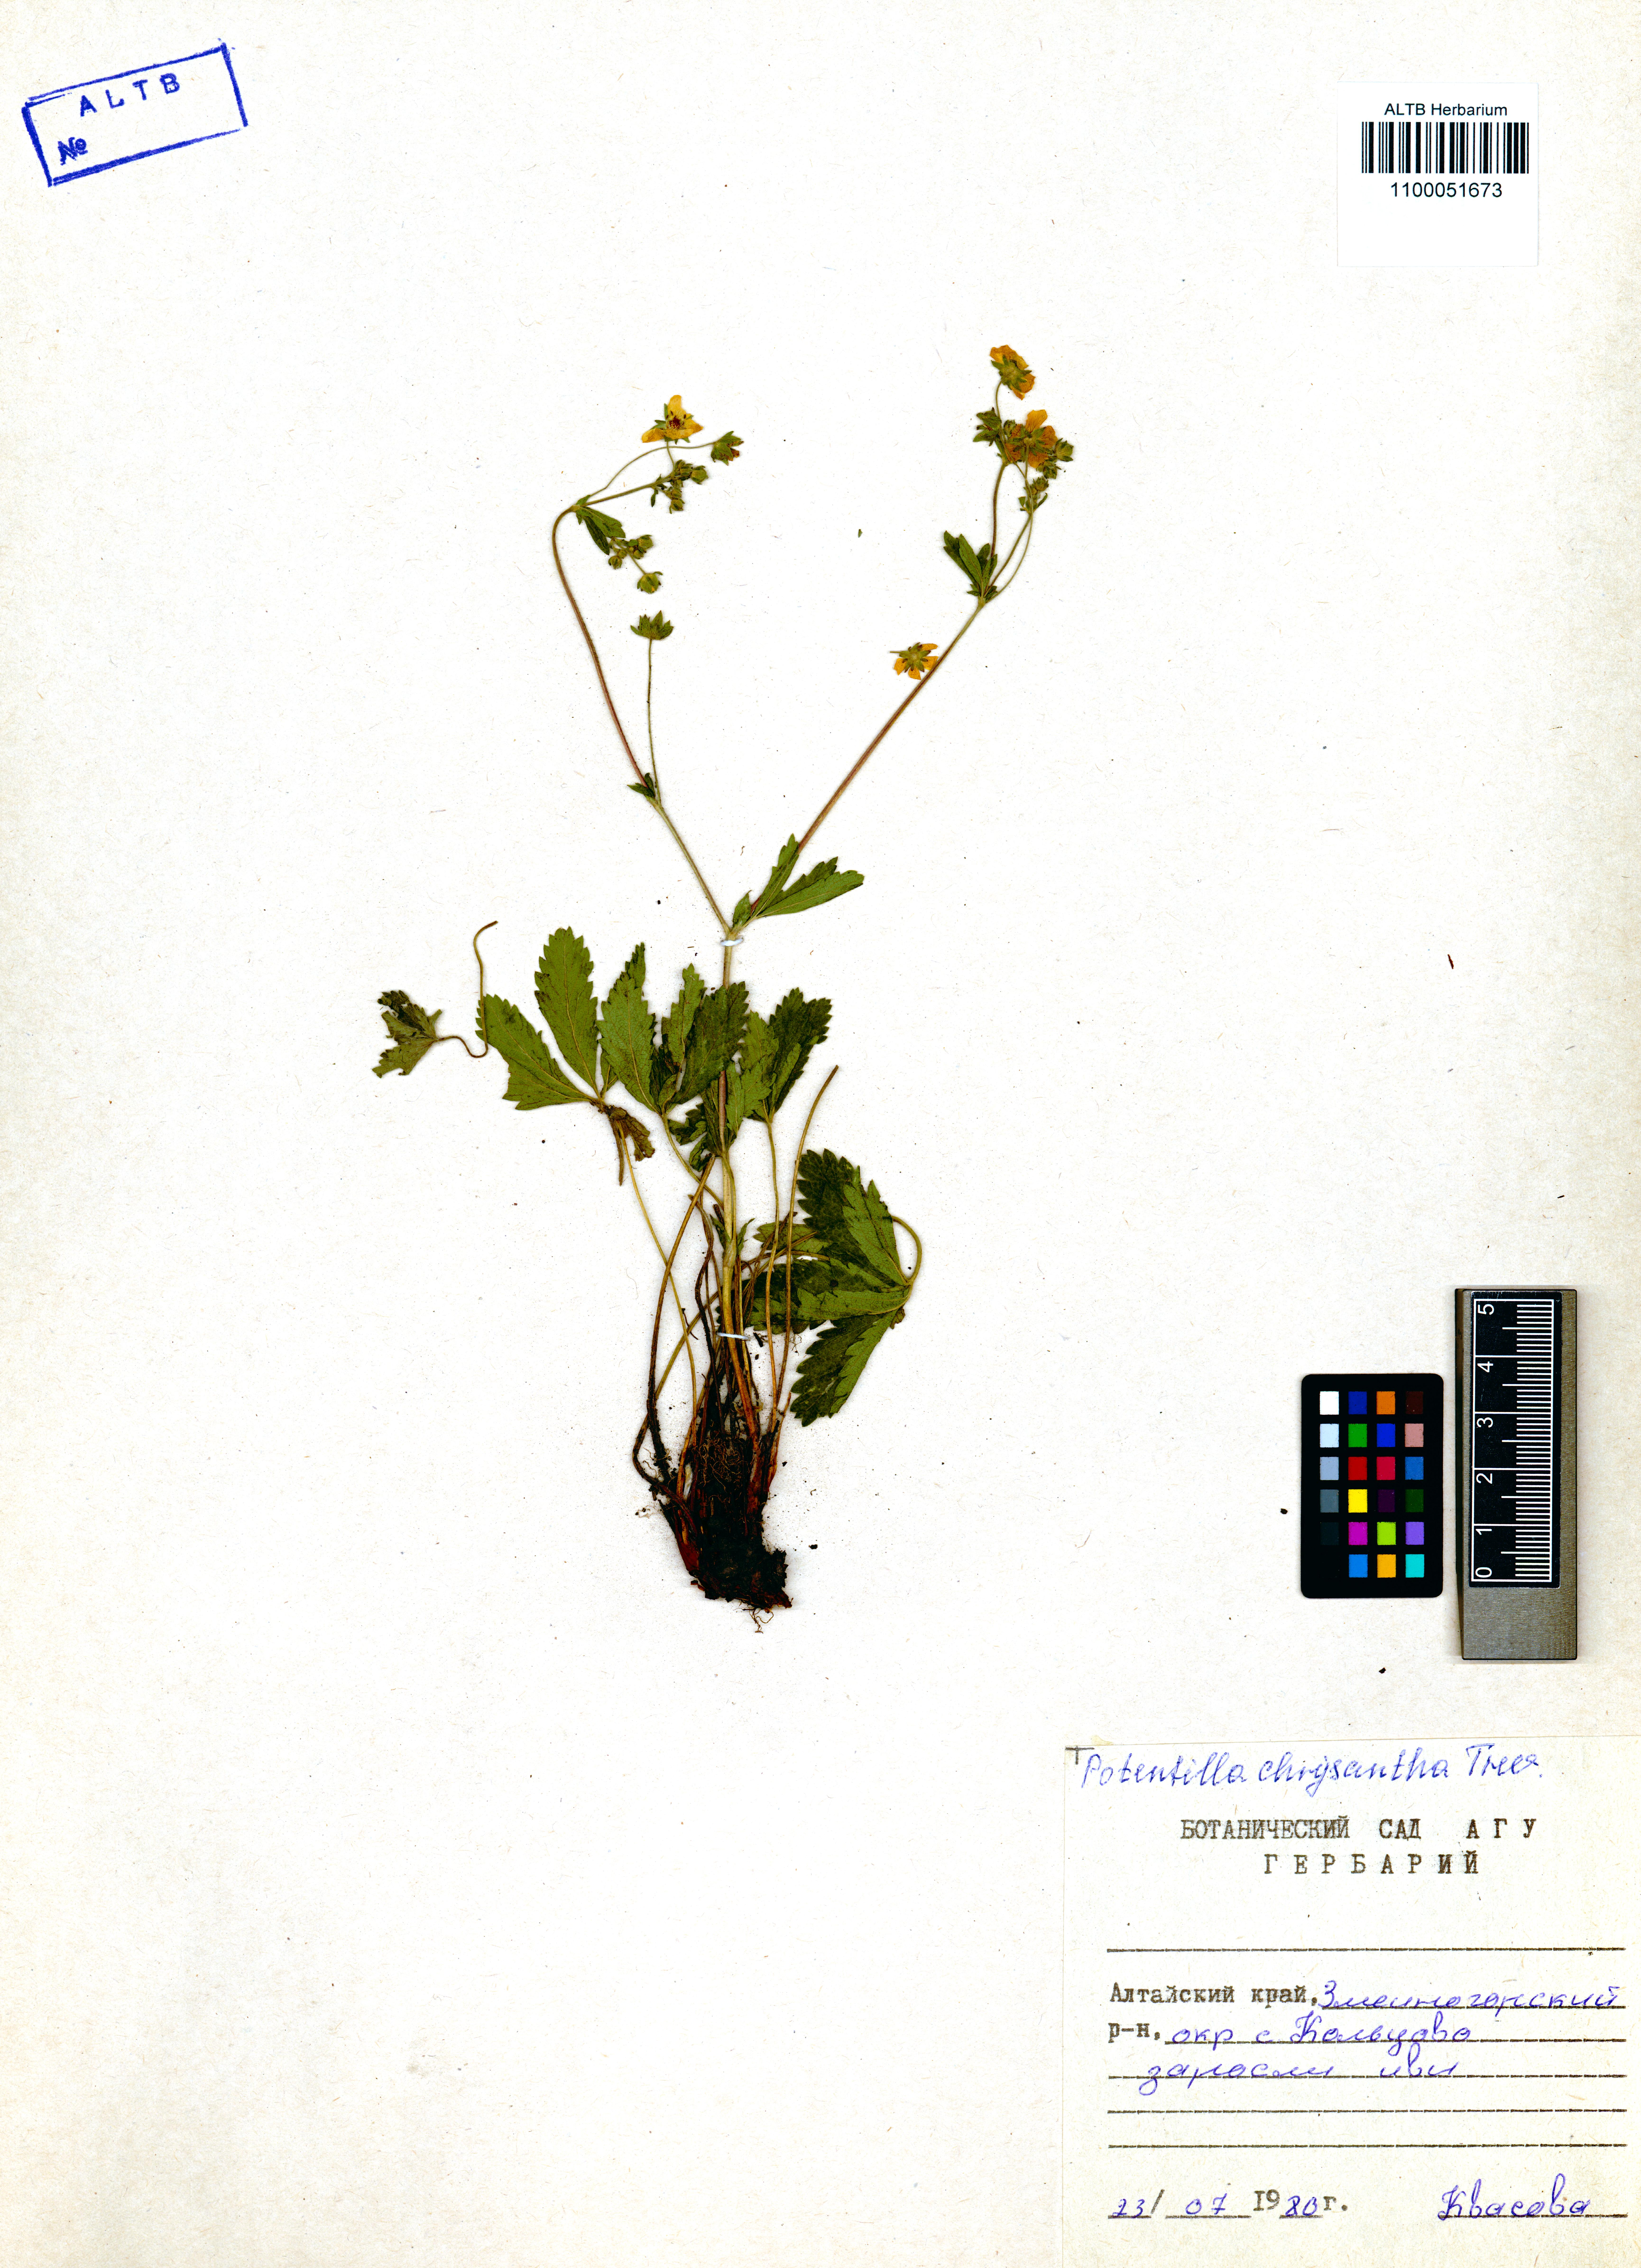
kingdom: Plantae
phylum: Tracheophyta
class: Magnoliopsida
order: Rosales
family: Rosaceae
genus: Potentilla
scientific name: Potentilla chrysantha
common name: Thuringian cinquefoil
